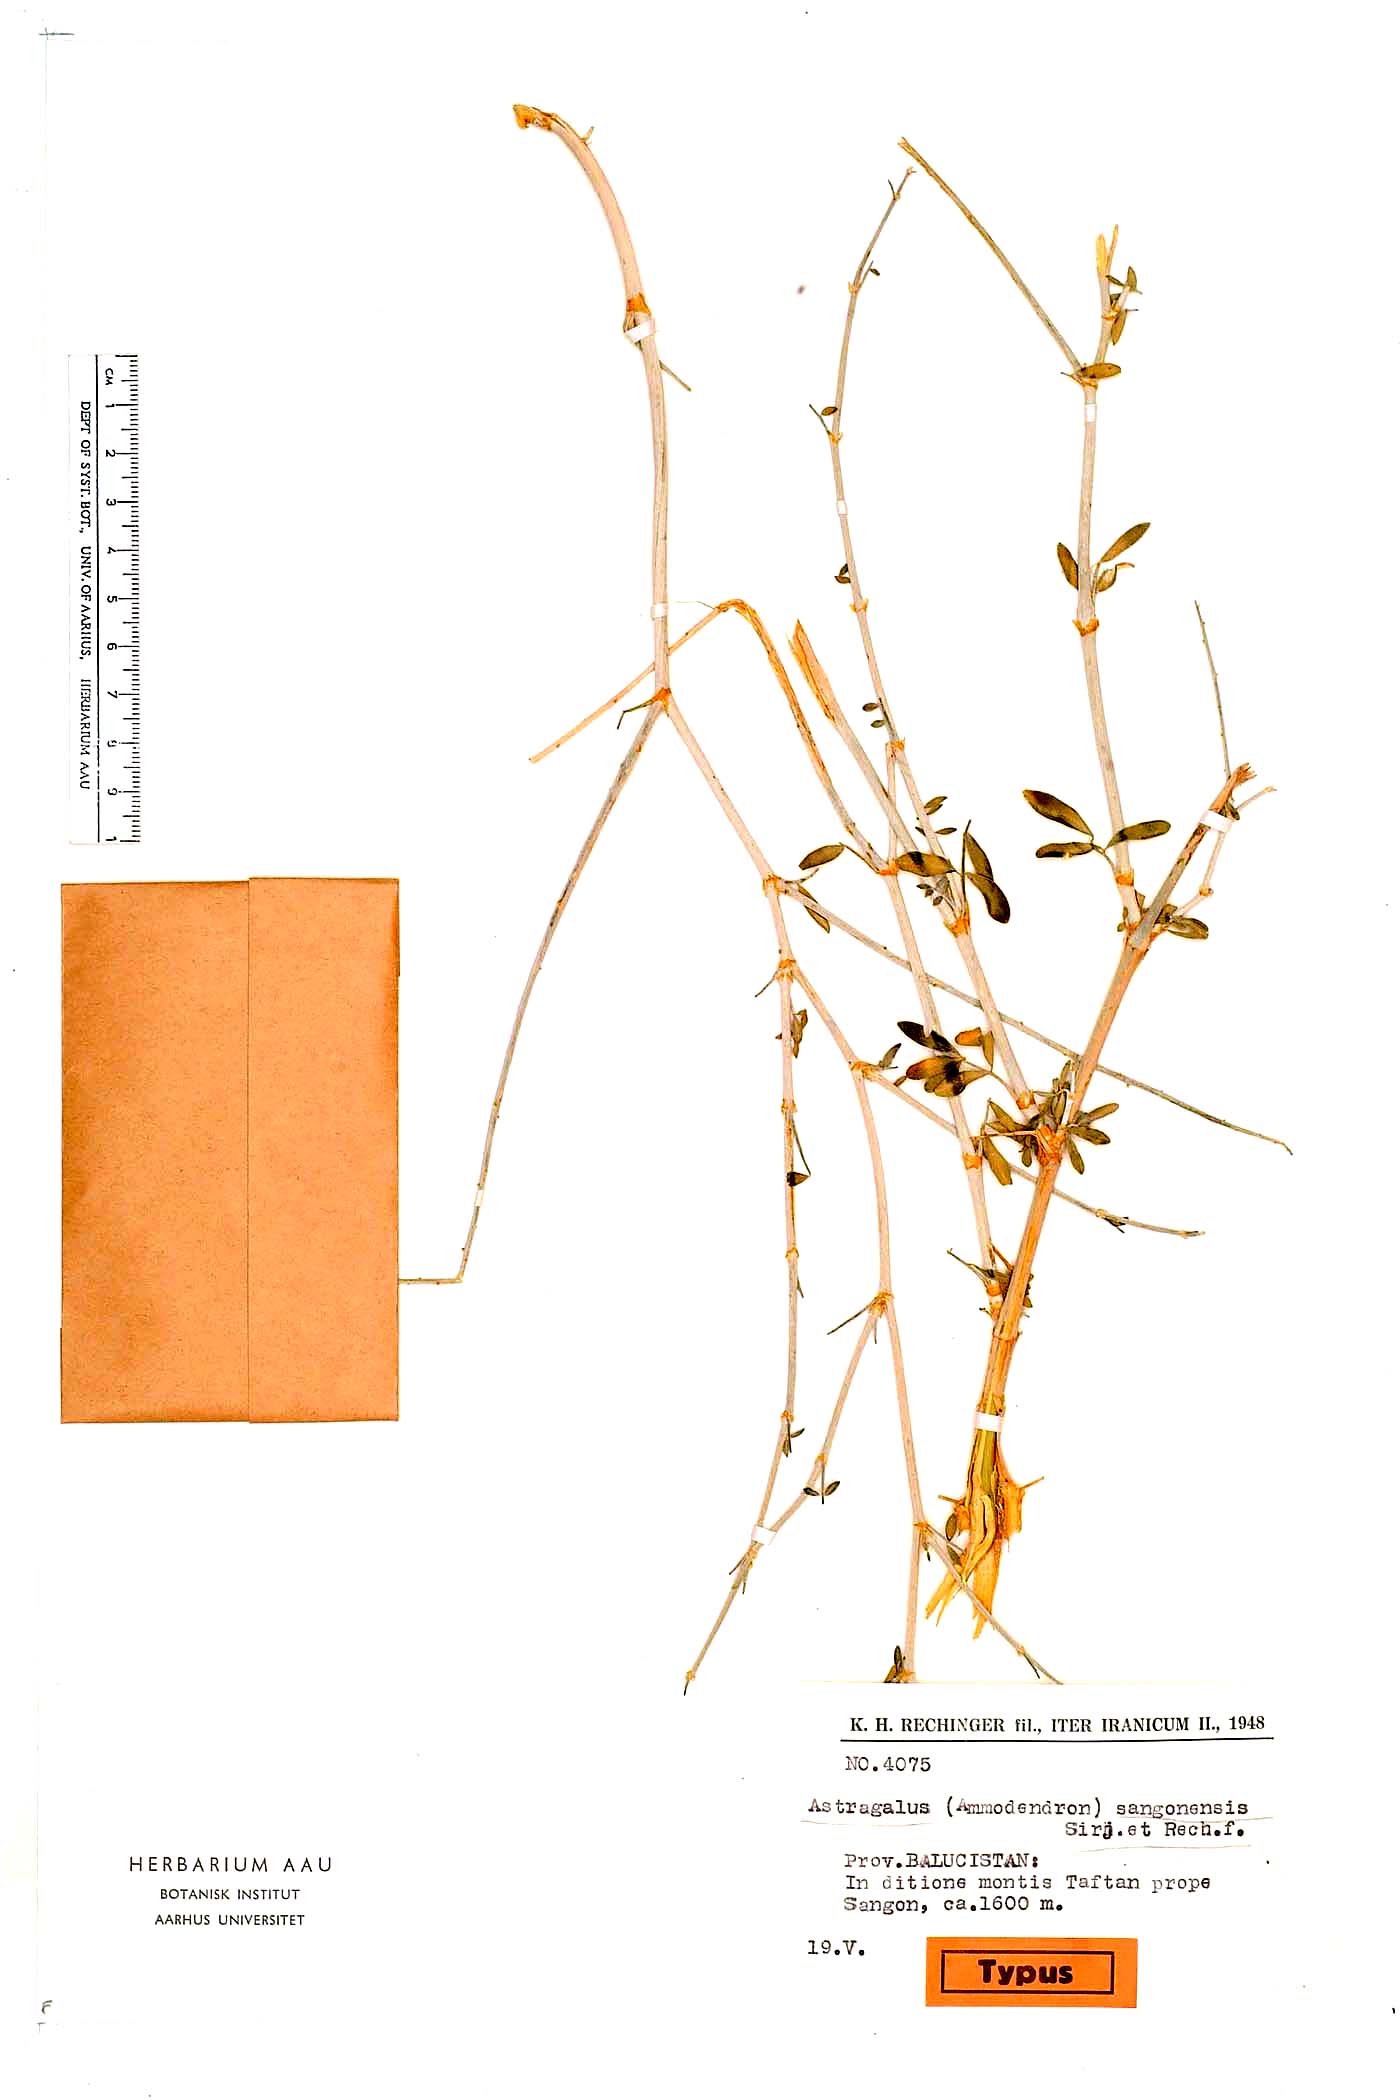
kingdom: Plantae
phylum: Tracheophyta
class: Magnoliopsida
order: Fabales
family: Fabaceae
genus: Astragalus
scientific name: Astragalus sangonensis
